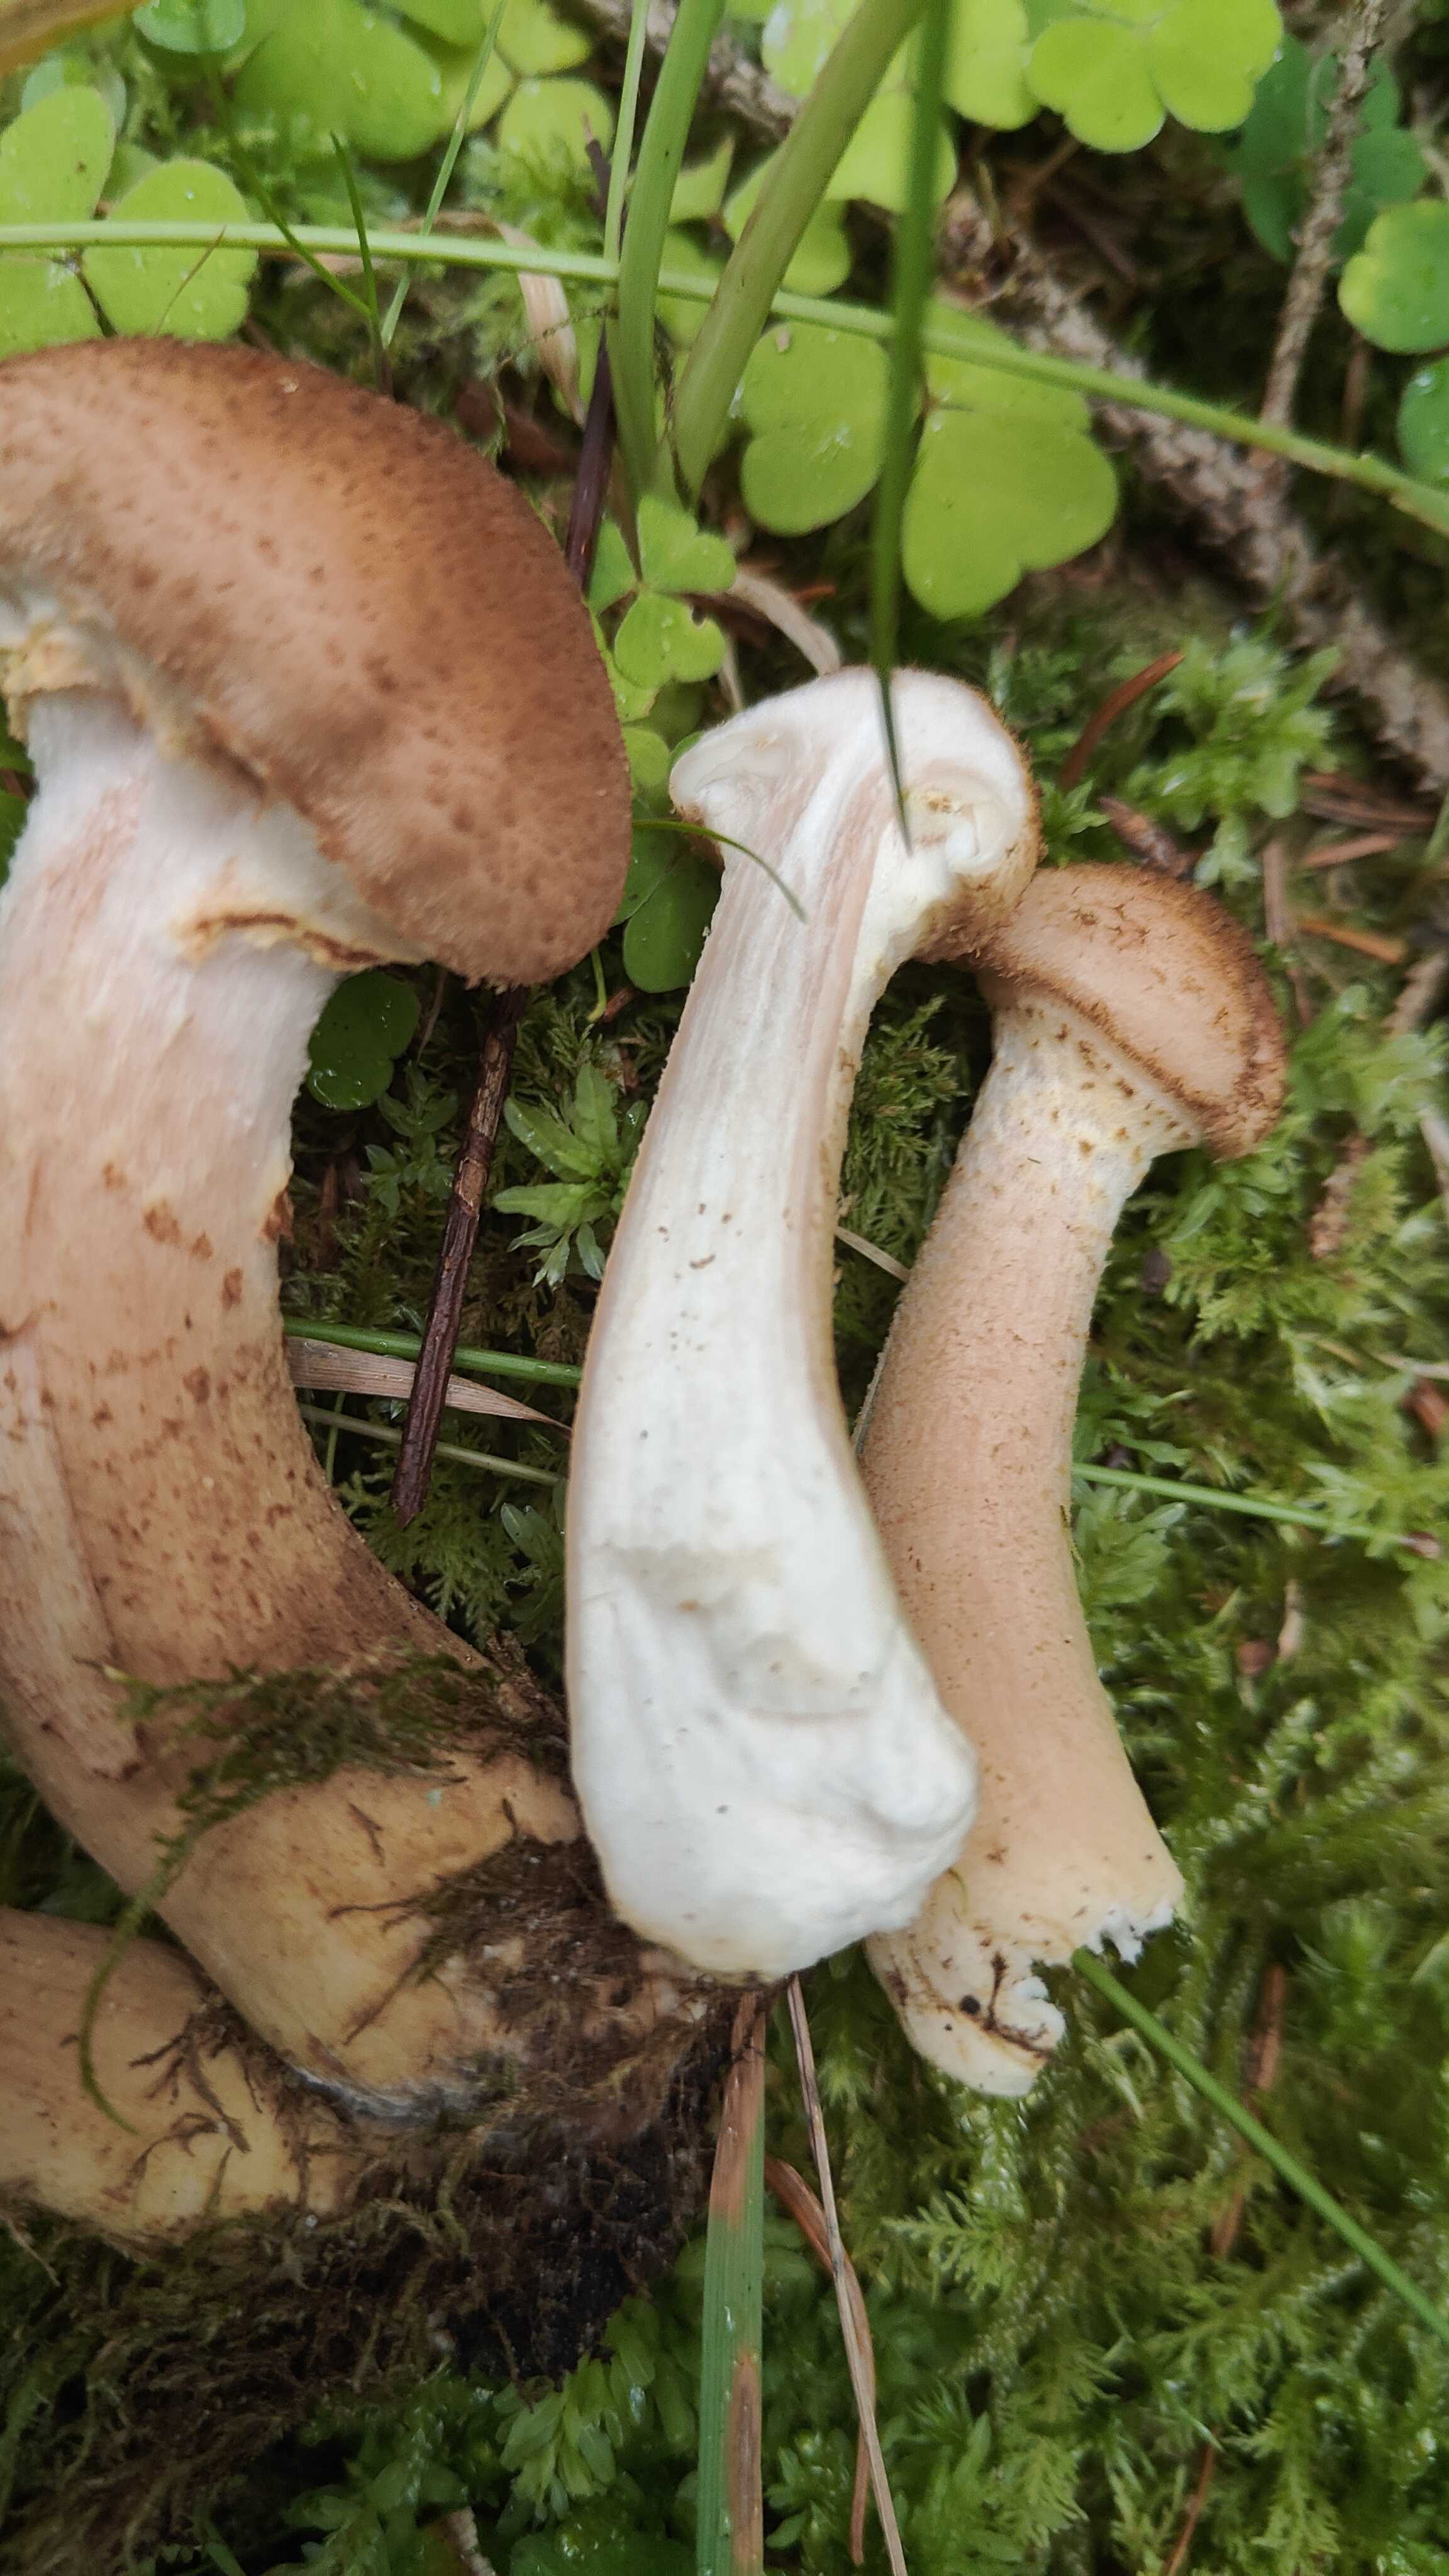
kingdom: Fungi
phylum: Basidiomycota
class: Agaricomycetes
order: Agaricales
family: Physalacriaceae
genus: Armillaria
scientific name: Armillaria lutea
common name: køllestokket honningsvamp
